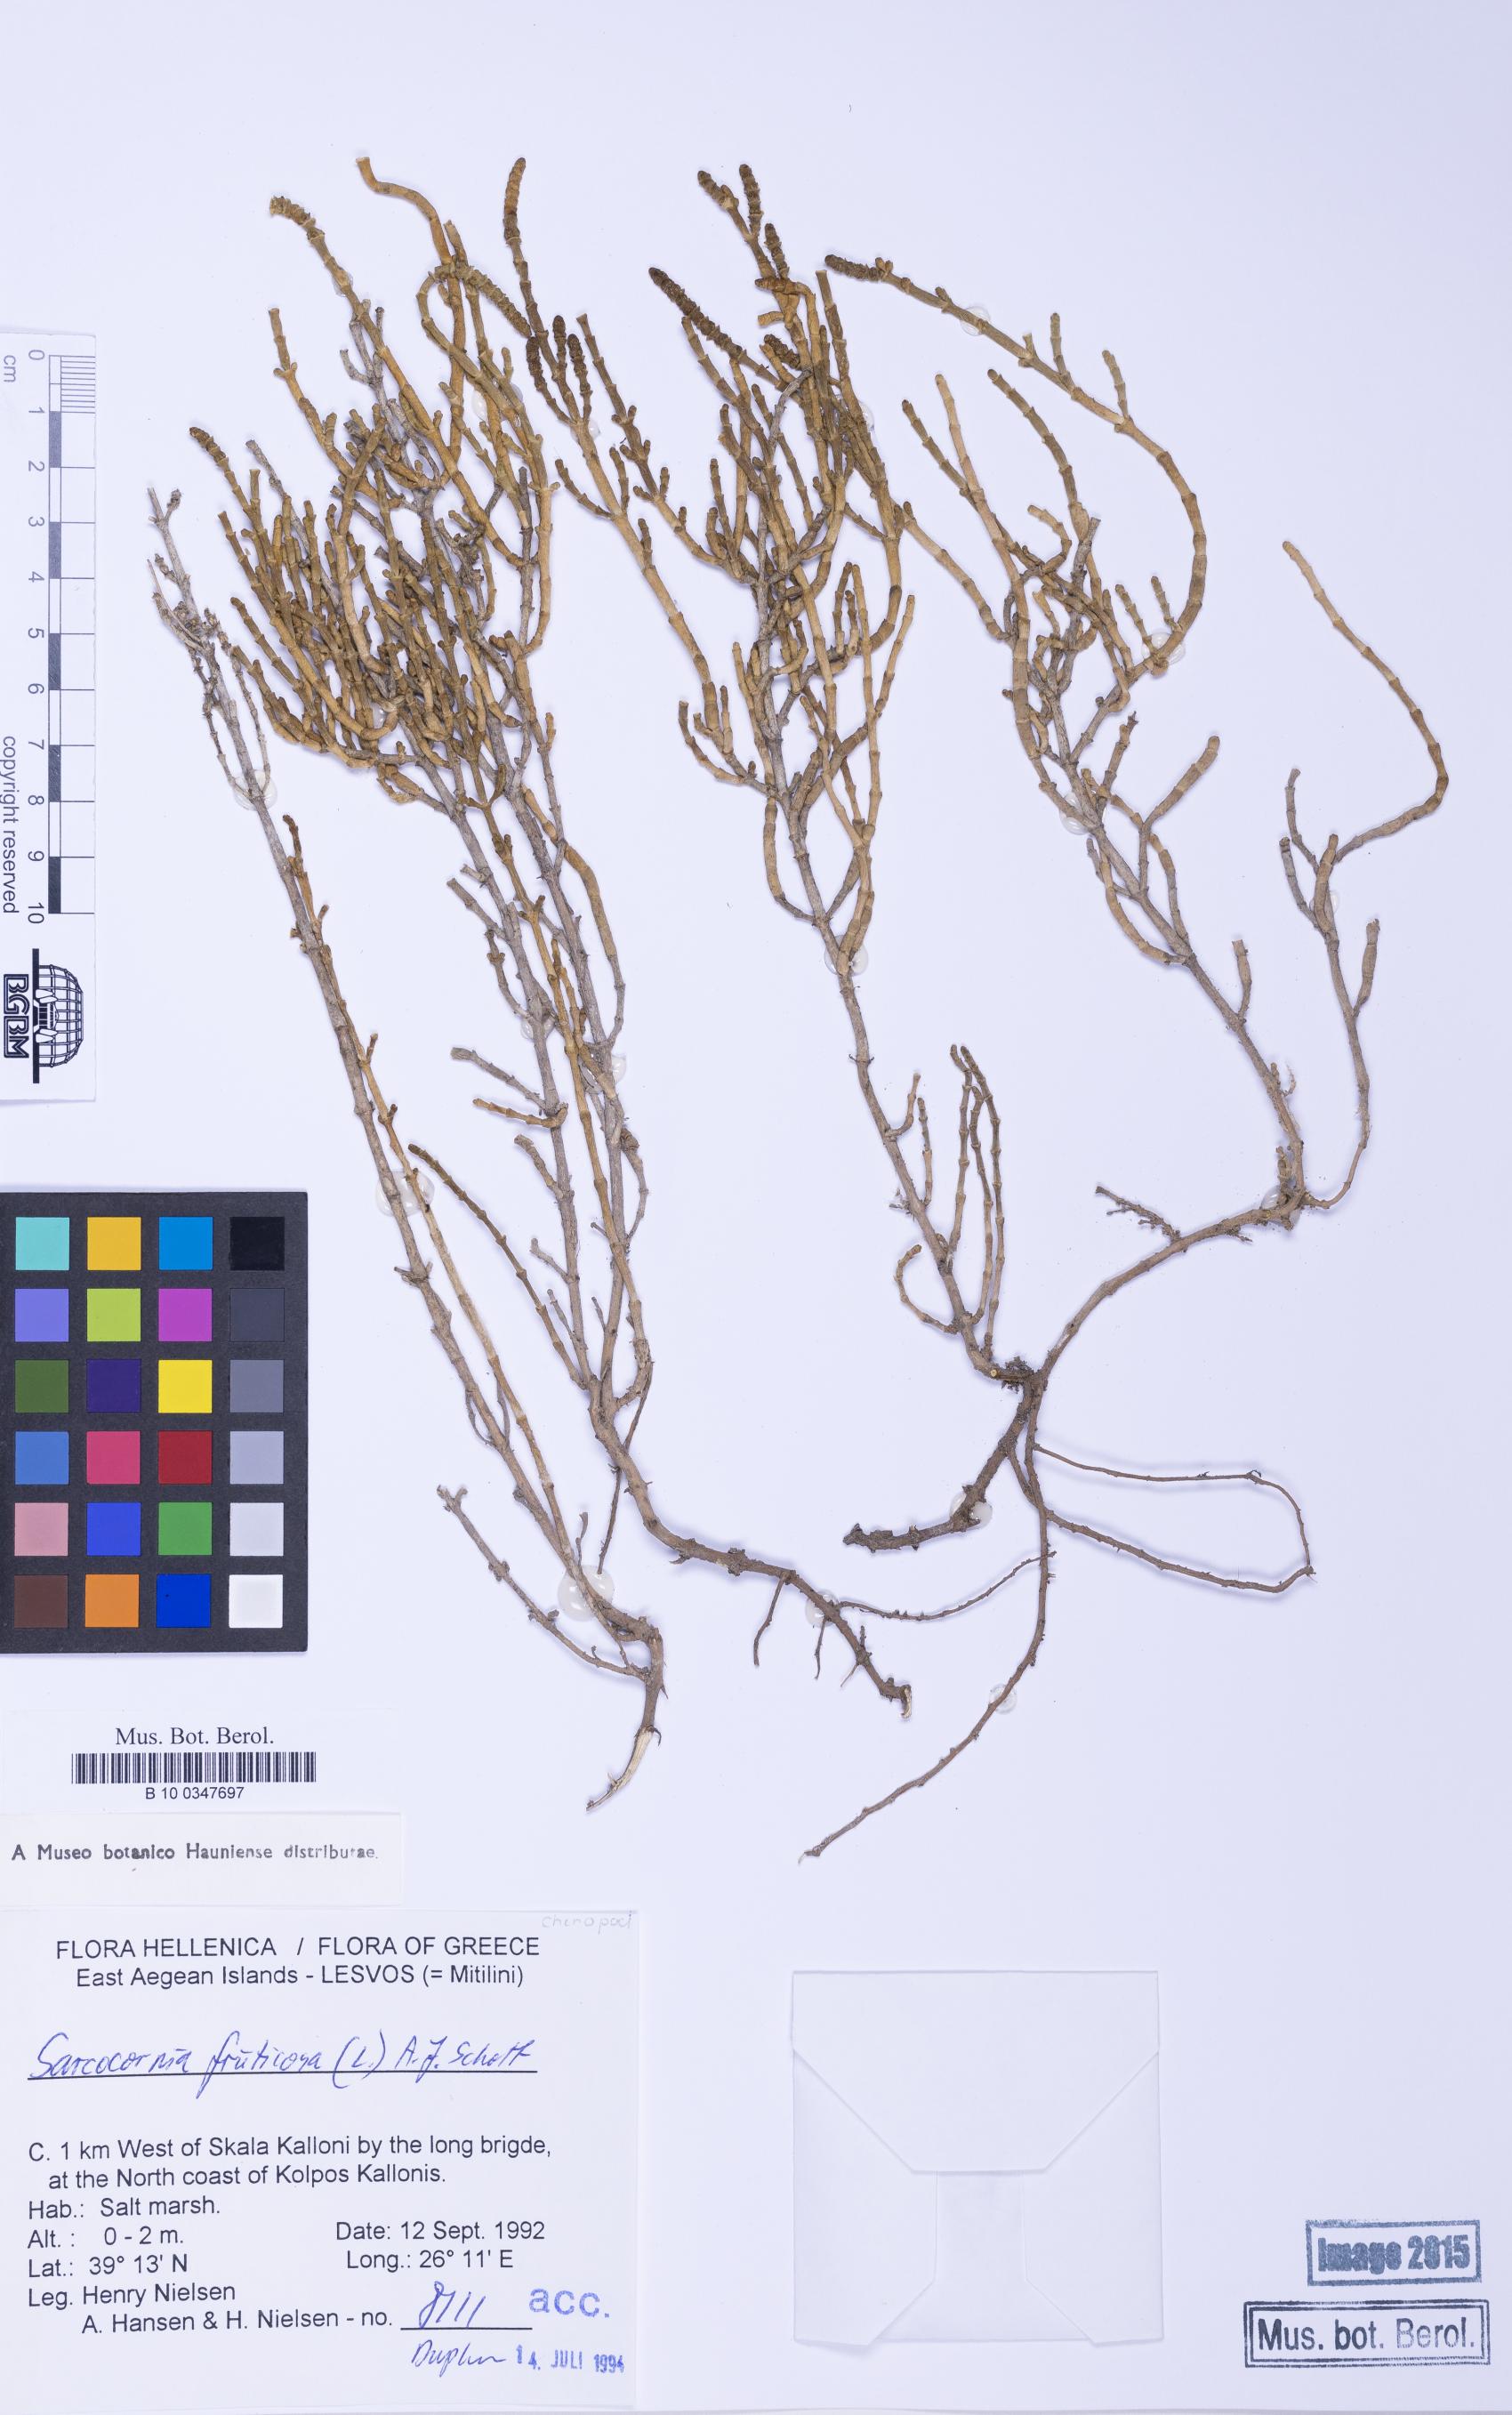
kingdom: Plantae
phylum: Tracheophyta
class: Magnoliopsida
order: Caryophyllales
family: Amaranthaceae
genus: Salicornia
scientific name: Salicornia perennis
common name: Chicken claws
